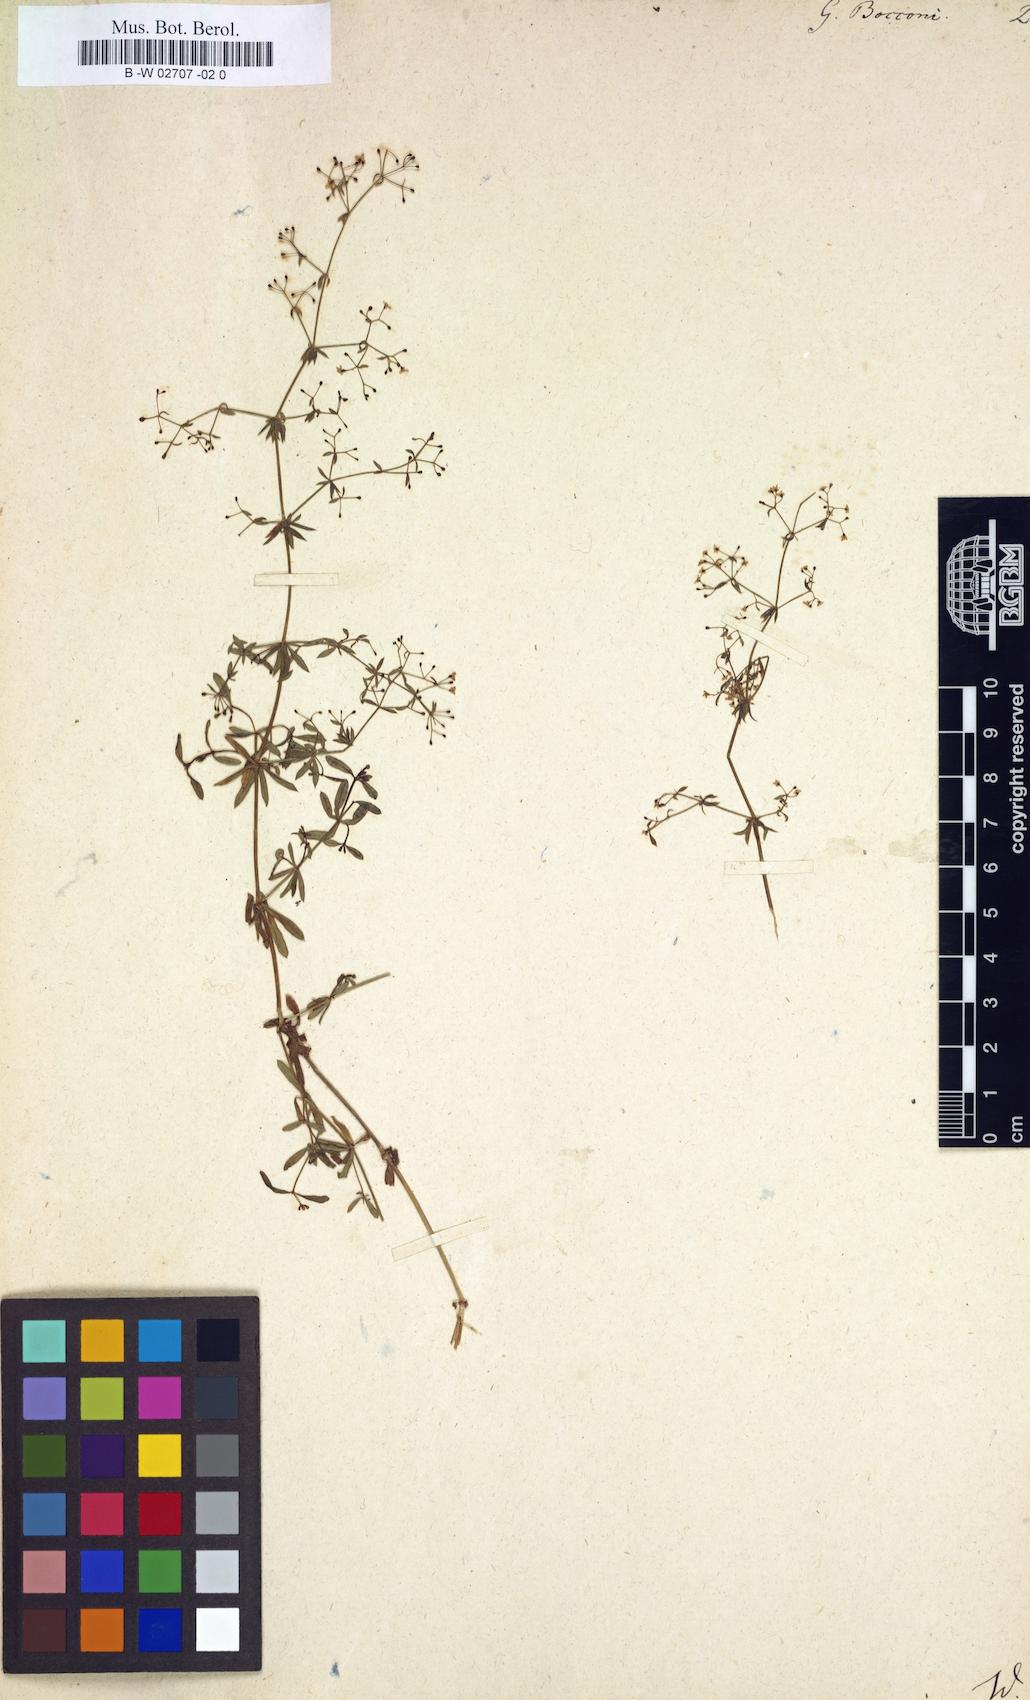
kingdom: Plantae
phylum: Tracheophyta
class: Magnoliopsida
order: Gentianales
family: Rubiaceae
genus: Galium
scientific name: Galium
